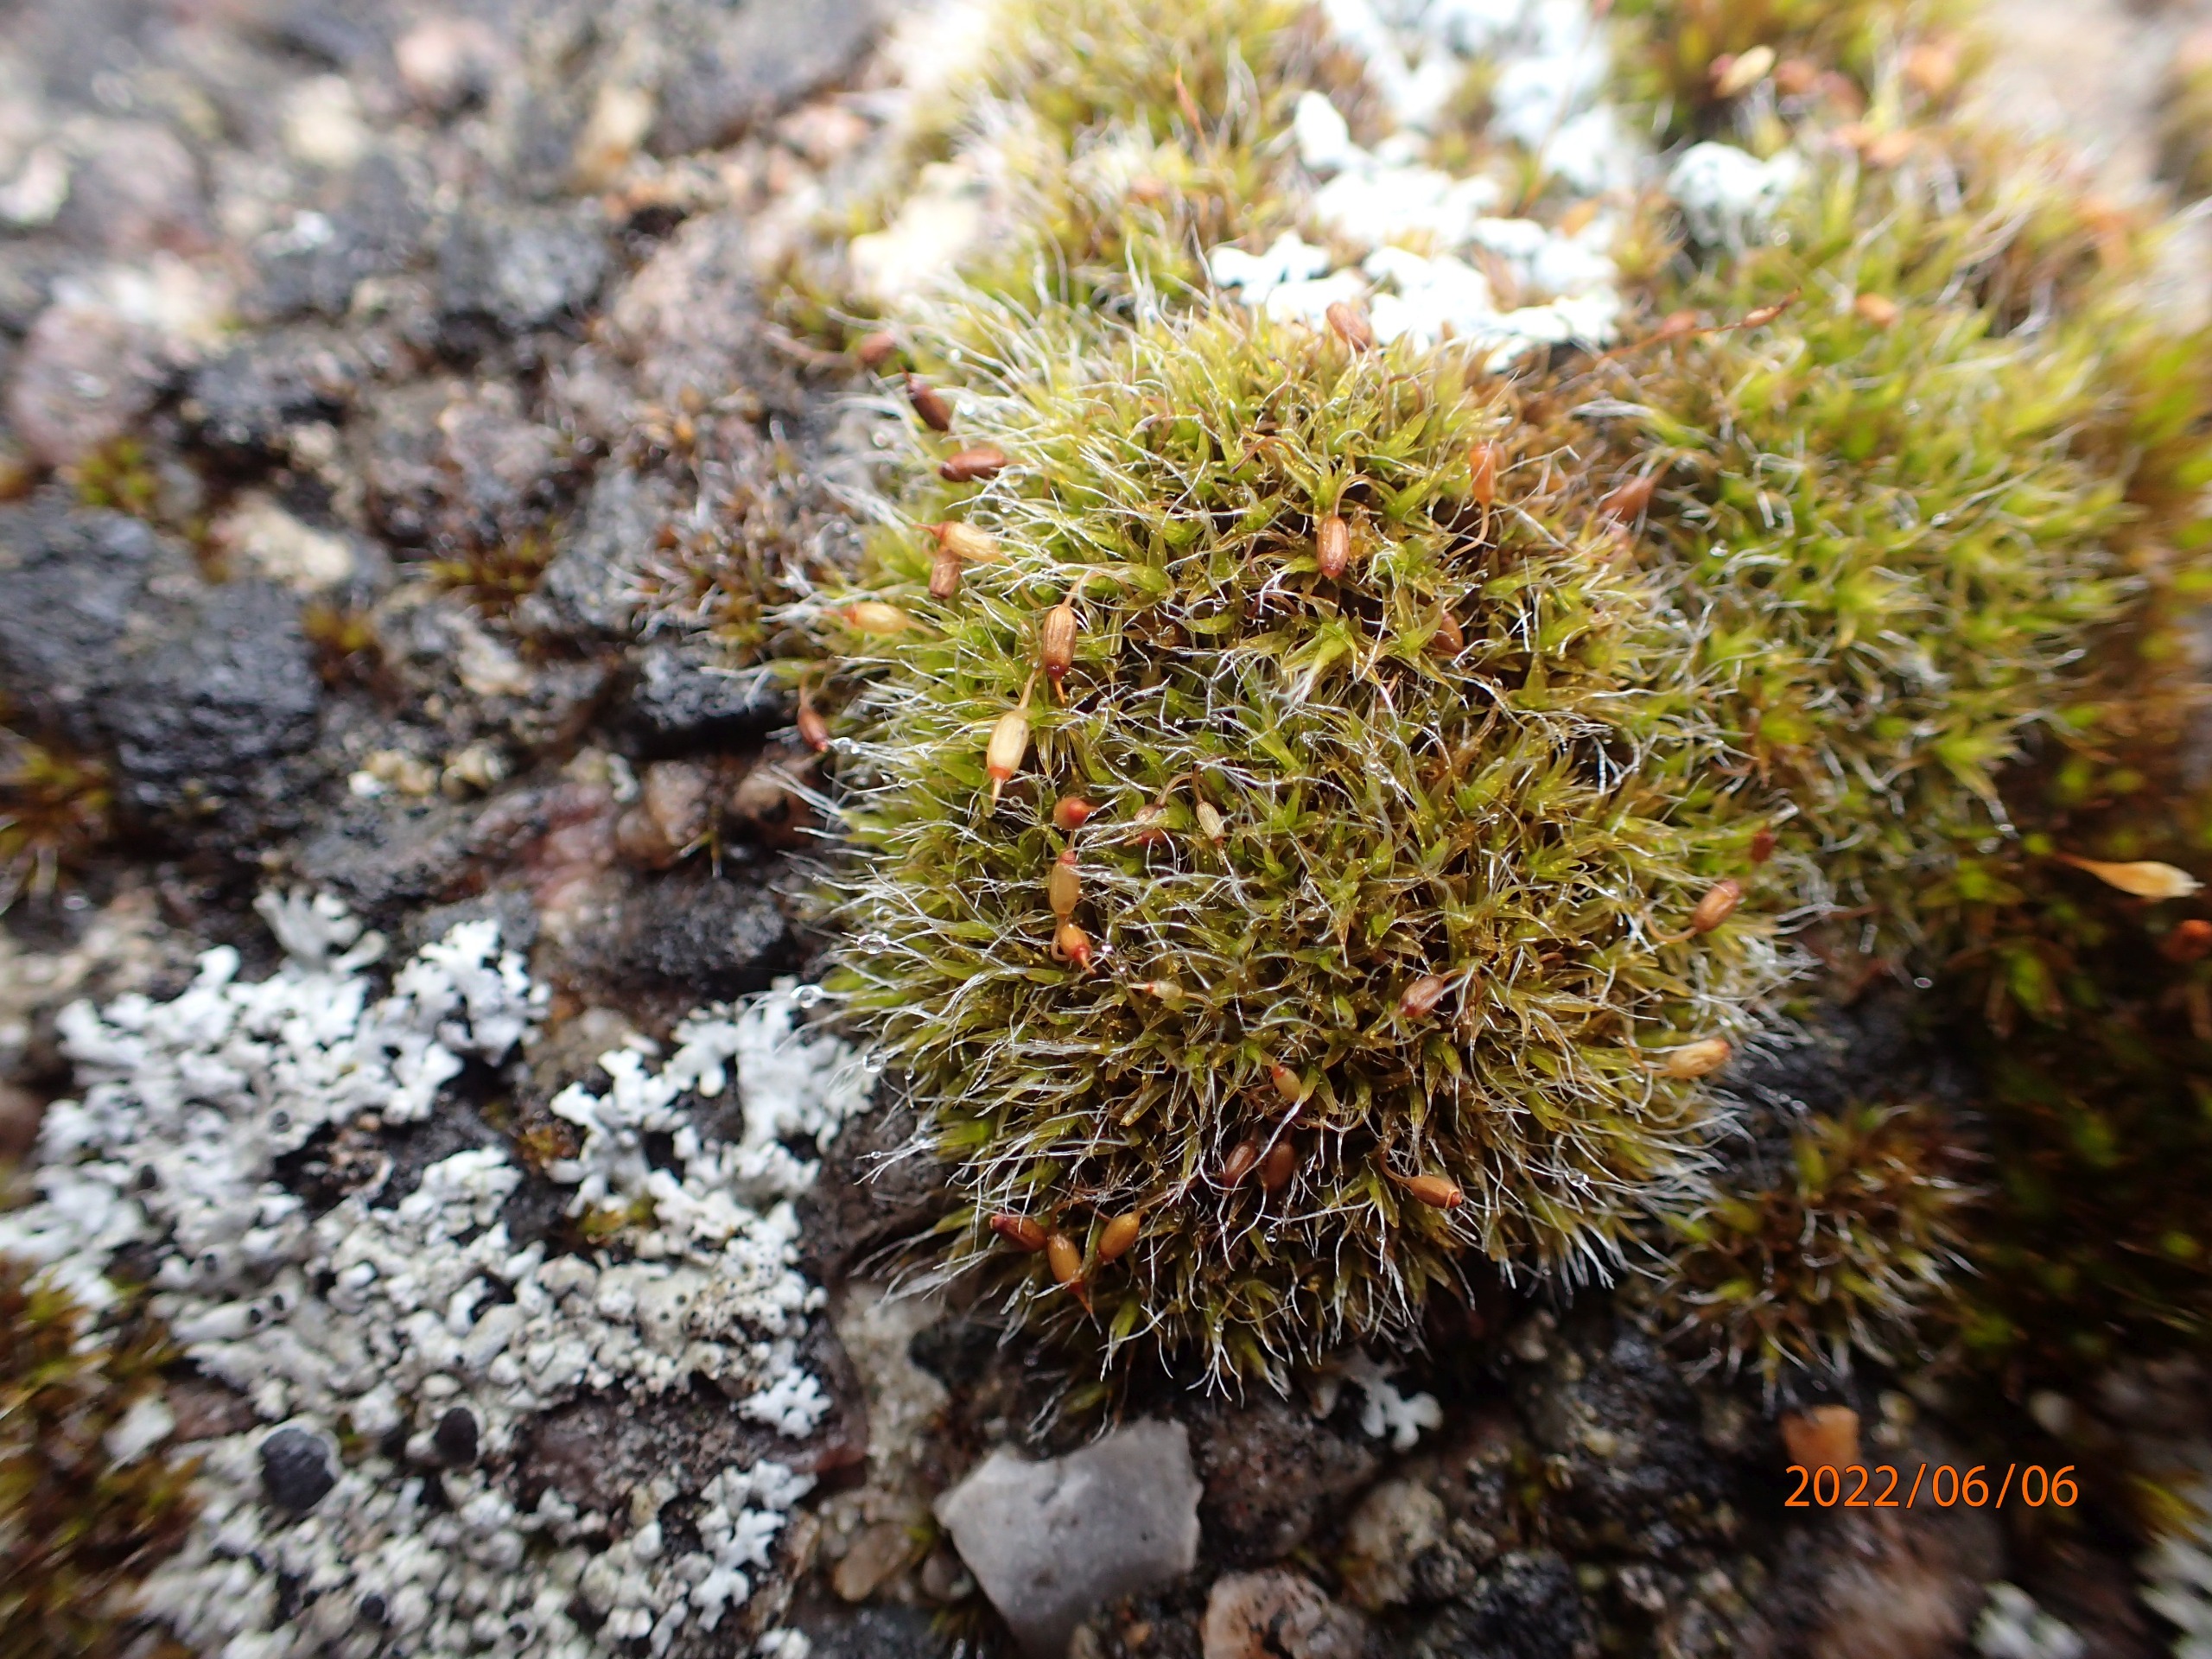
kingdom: Plantae
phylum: Bryophyta
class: Bryopsida
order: Grimmiales
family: Grimmiaceae
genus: Grimmia
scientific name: Grimmia pulvinata
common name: Pude-gråmos
